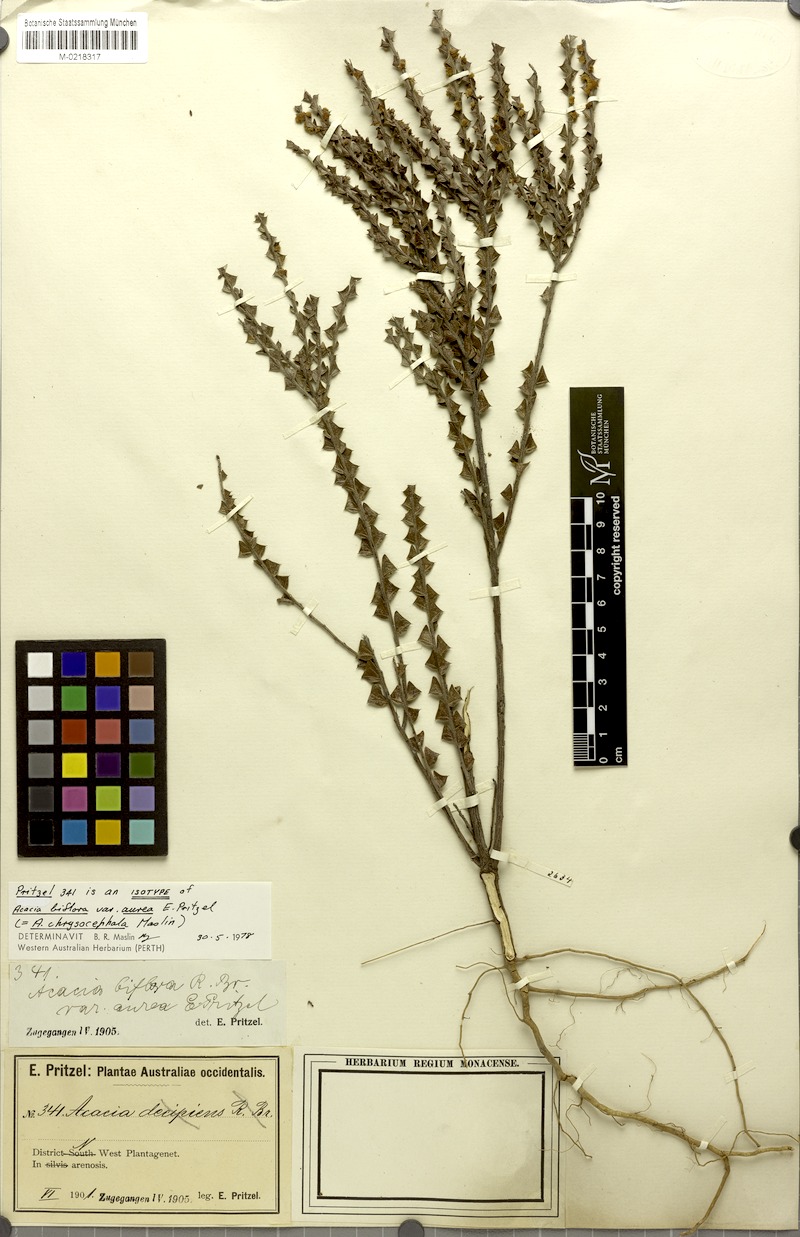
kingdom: Plantae
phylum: Tracheophyta
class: Magnoliopsida
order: Fabales
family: Fabaceae
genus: Acacia
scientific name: Acacia chrysocephala
